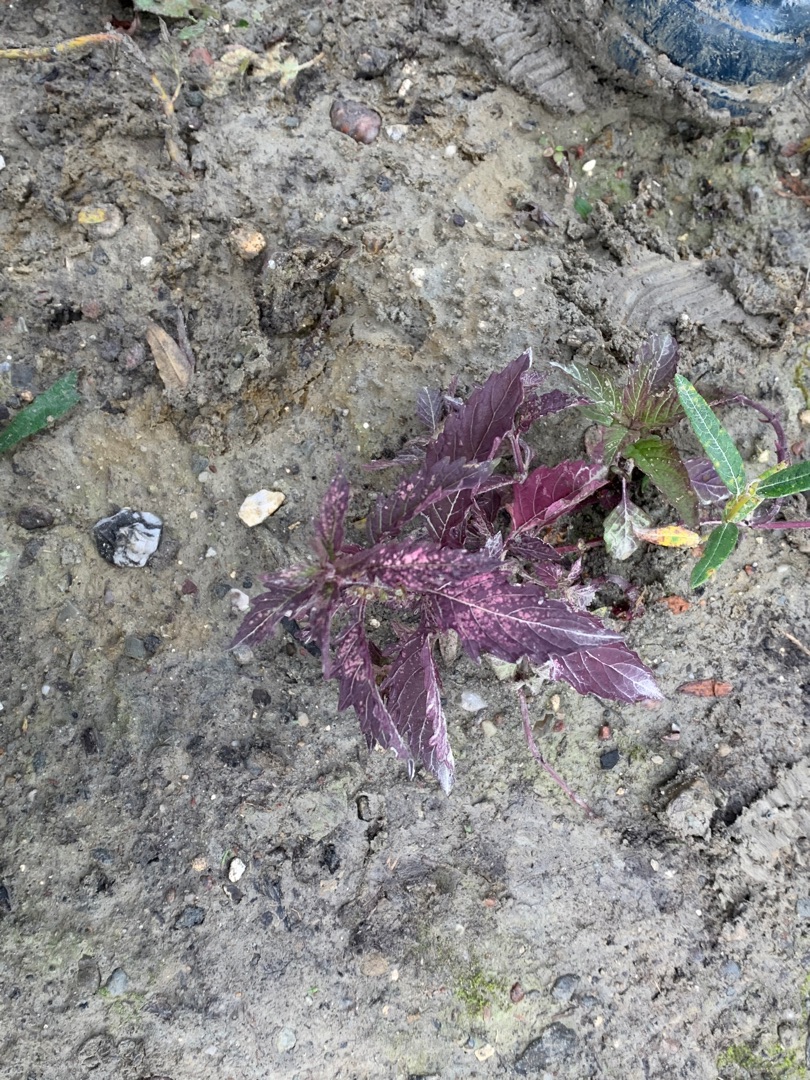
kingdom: Plantae
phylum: Tracheophyta
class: Magnoliopsida
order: Lamiales
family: Lamiaceae
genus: Lycopus
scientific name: Lycopus europaeus
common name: Sværtevæld
